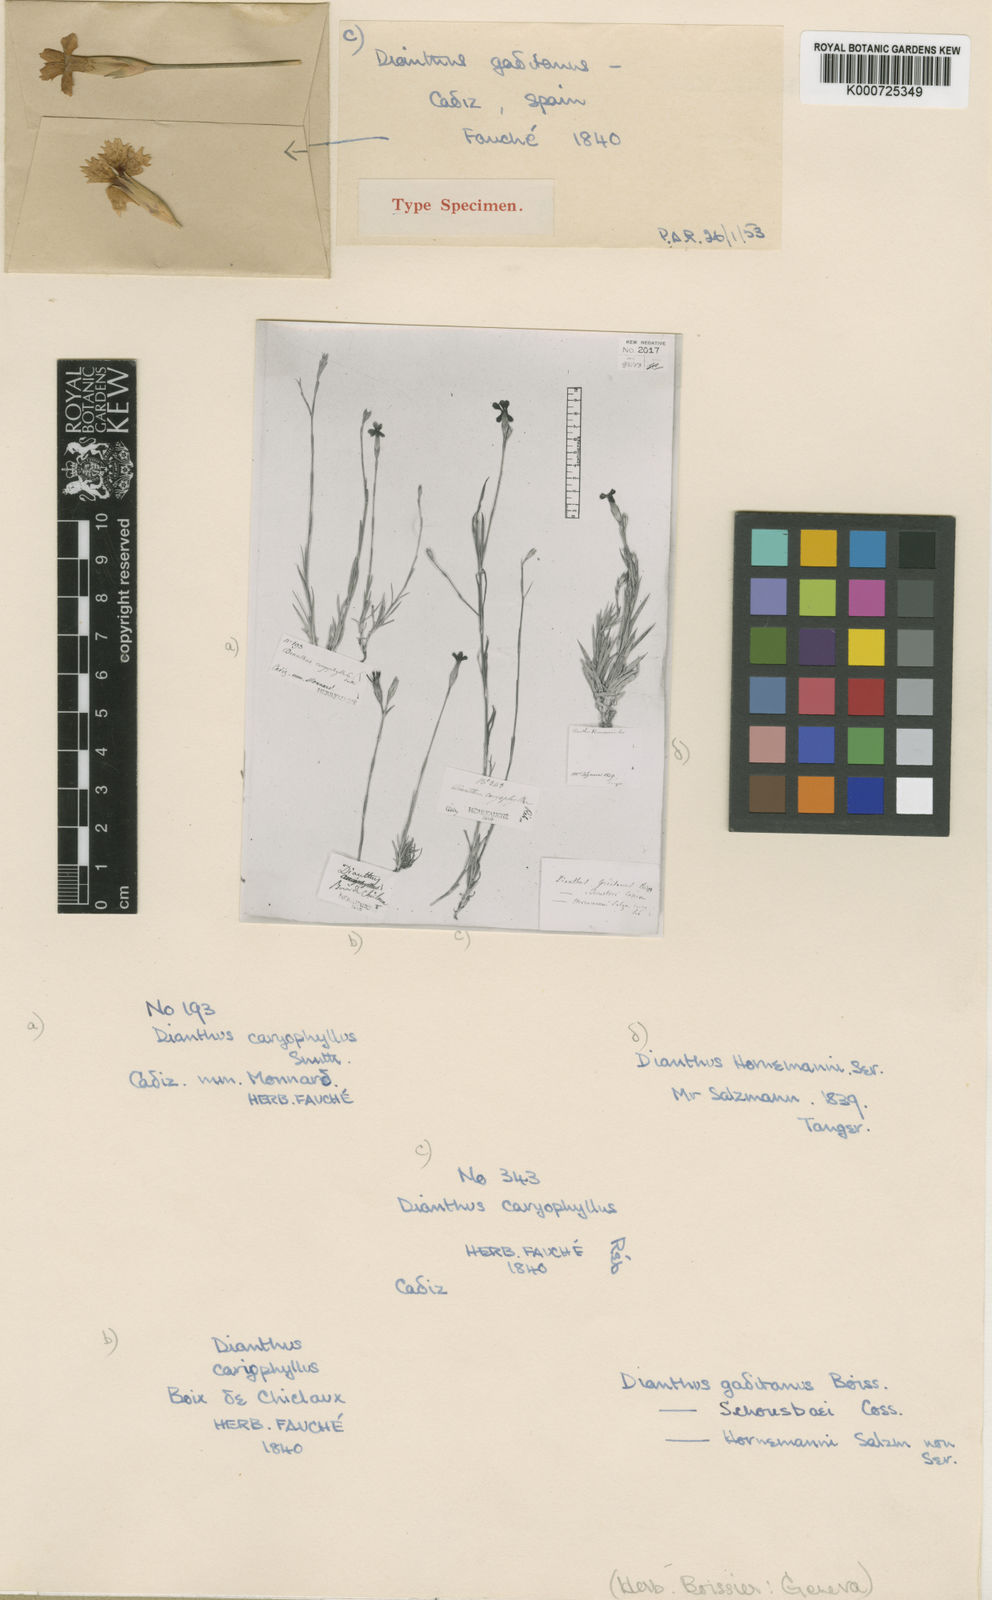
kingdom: Plantae
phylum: Tracheophyta
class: Magnoliopsida
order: Caryophyllales
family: Caryophyllaceae
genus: Dianthus
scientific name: Dianthus anticarius
